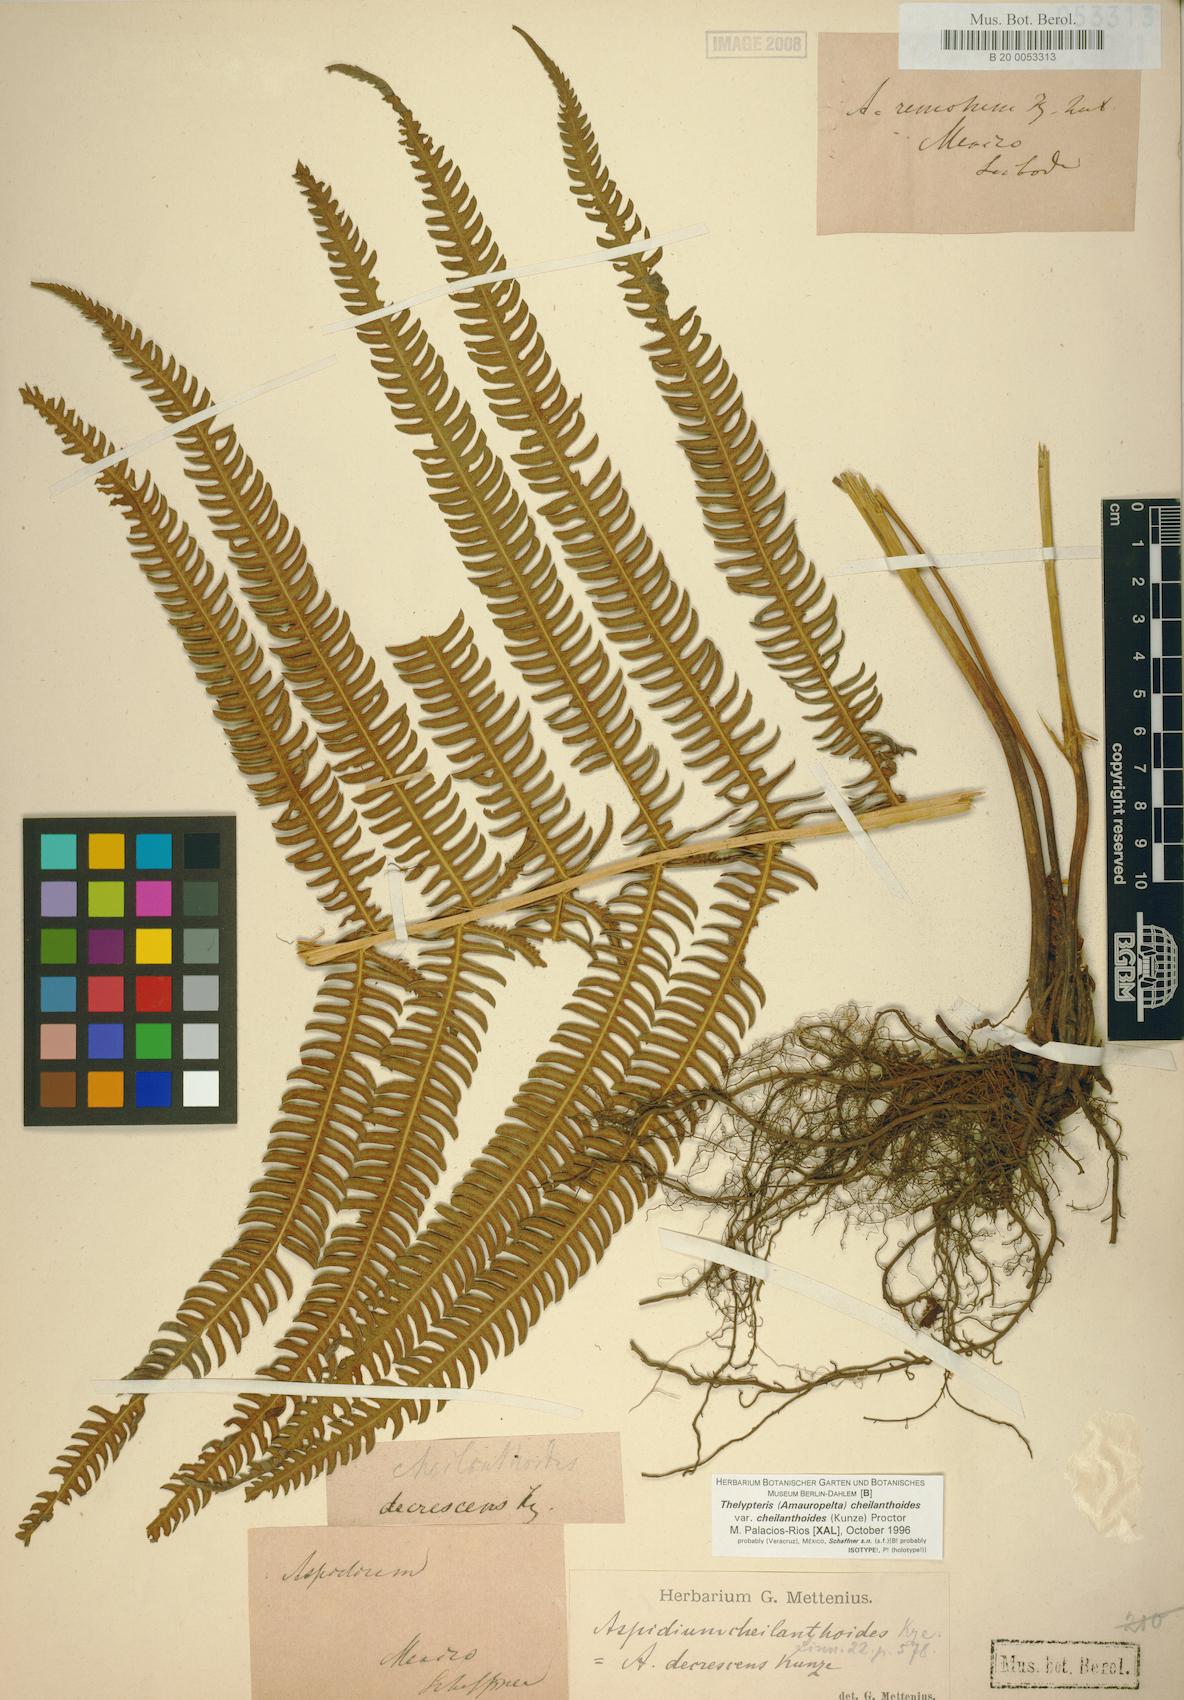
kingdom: Plantae
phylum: Tracheophyta
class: Polypodiopsida
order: Polypodiales
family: Thelypteridaceae
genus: Amauropelta
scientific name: Amauropelta cheilanthoides
